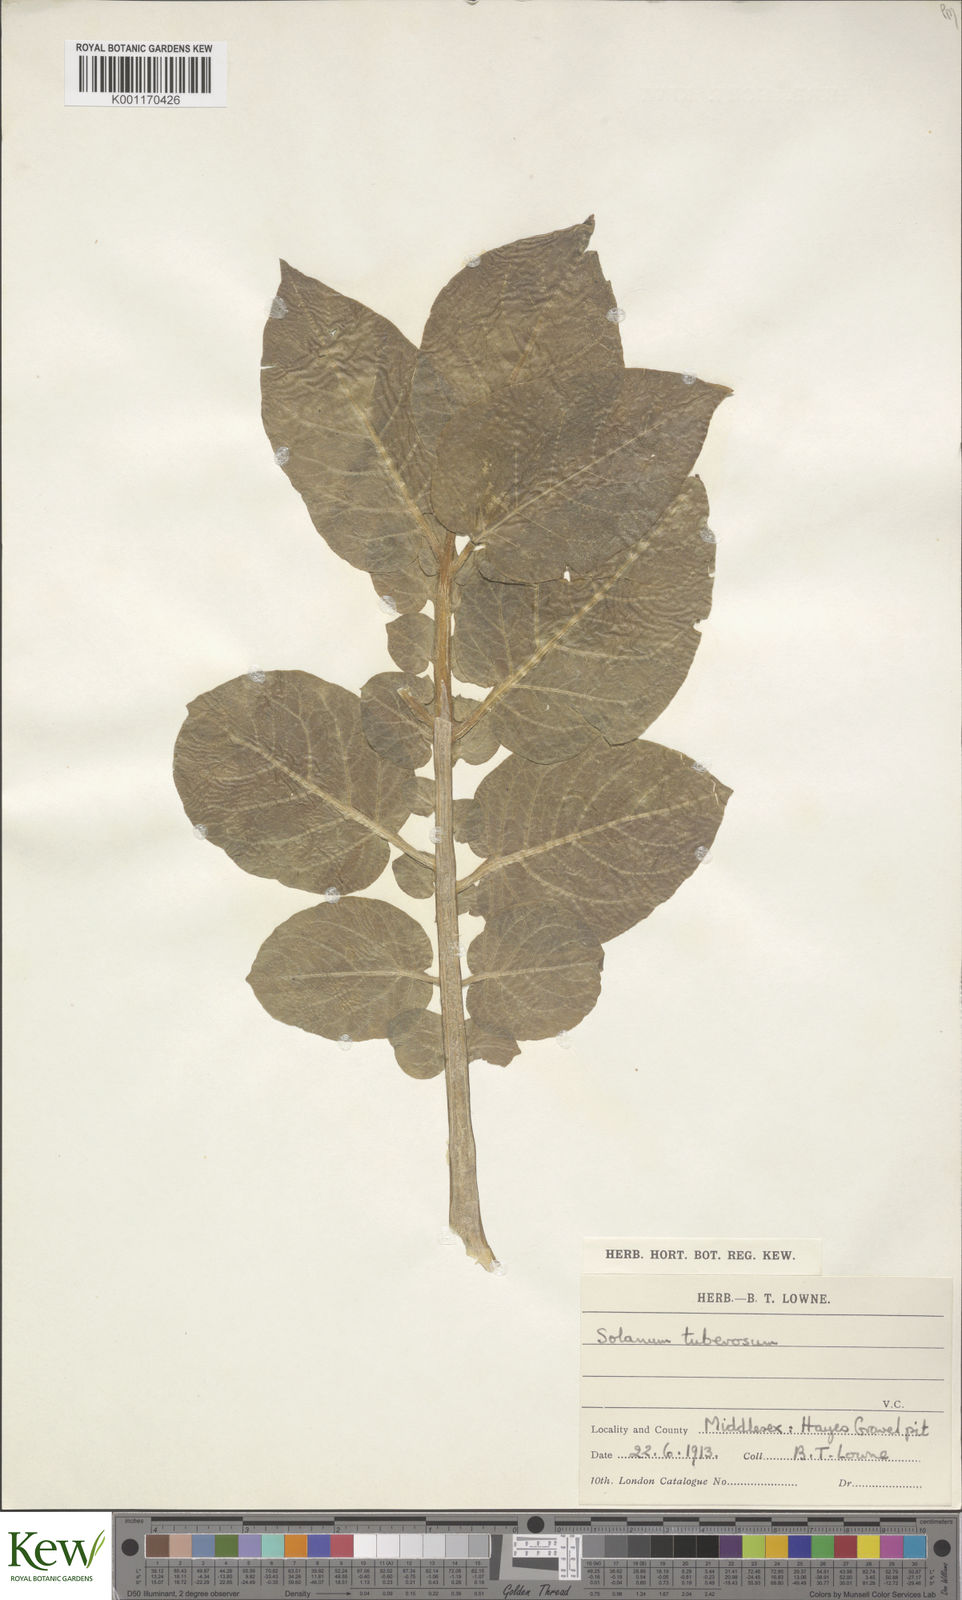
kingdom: Plantae
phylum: Tracheophyta
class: Magnoliopsida
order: Solanales
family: Solanaceae
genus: Solanum
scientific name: Solanum tuberosum
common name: Potato
